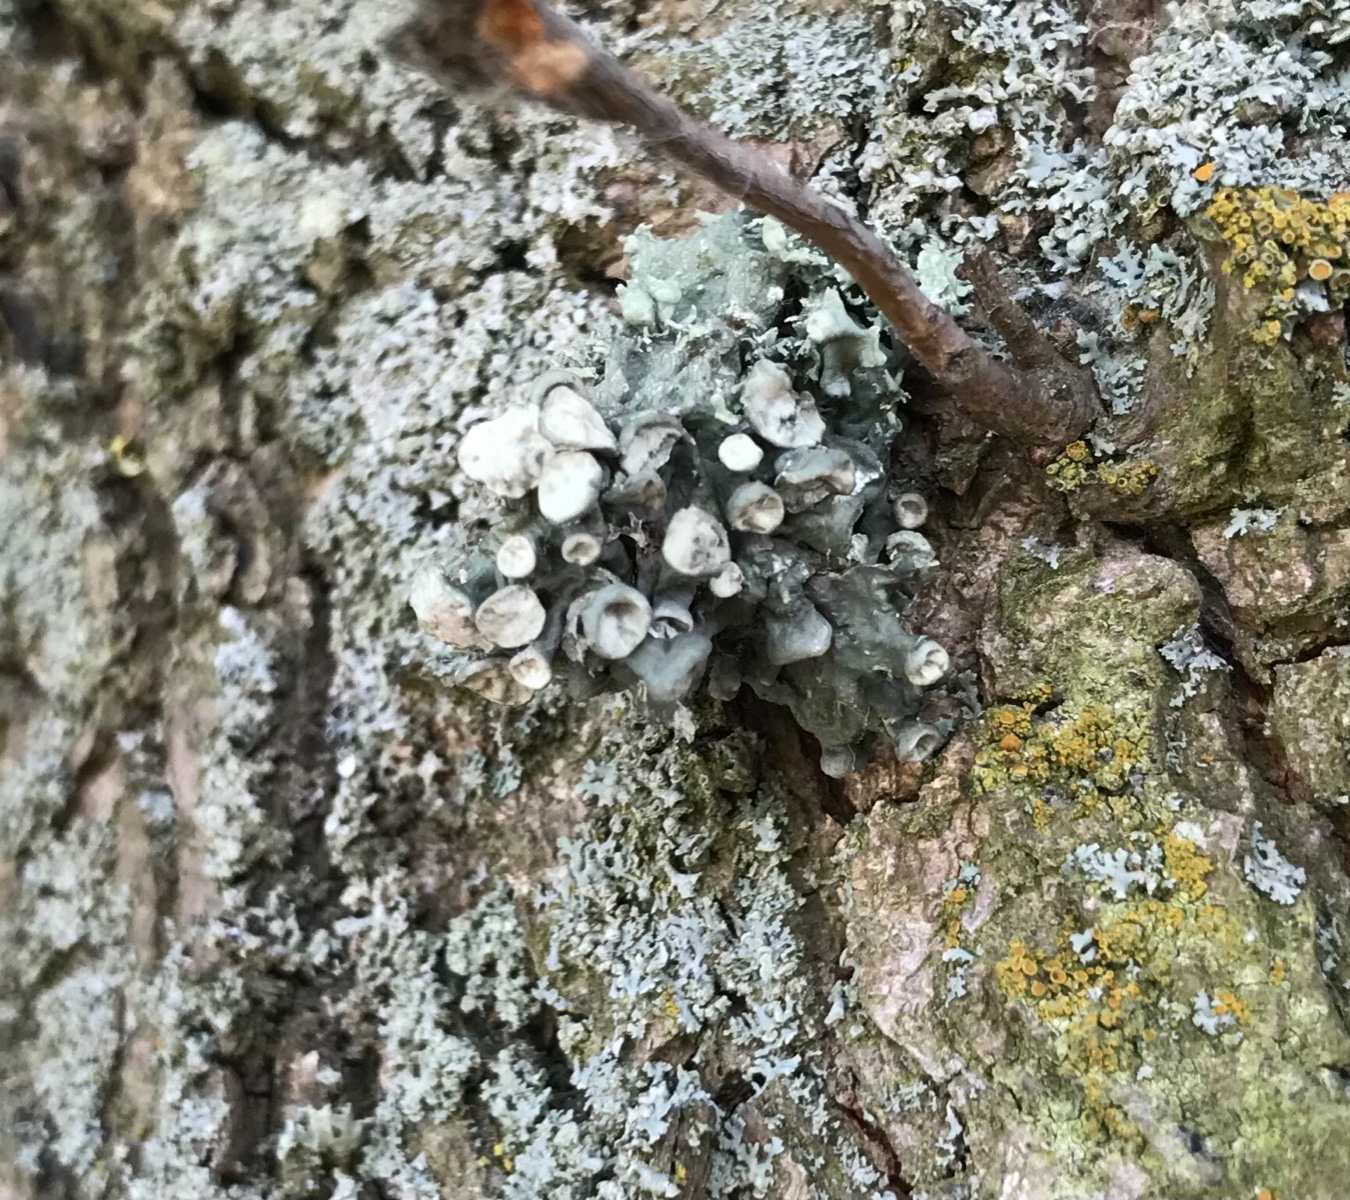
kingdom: Fungi
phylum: Ascomycota
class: Lecanoromycetes
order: Lecanorales
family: Ramalinaceae
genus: Ramalina
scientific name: Ramalina fastigiata
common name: tue-grenlav
